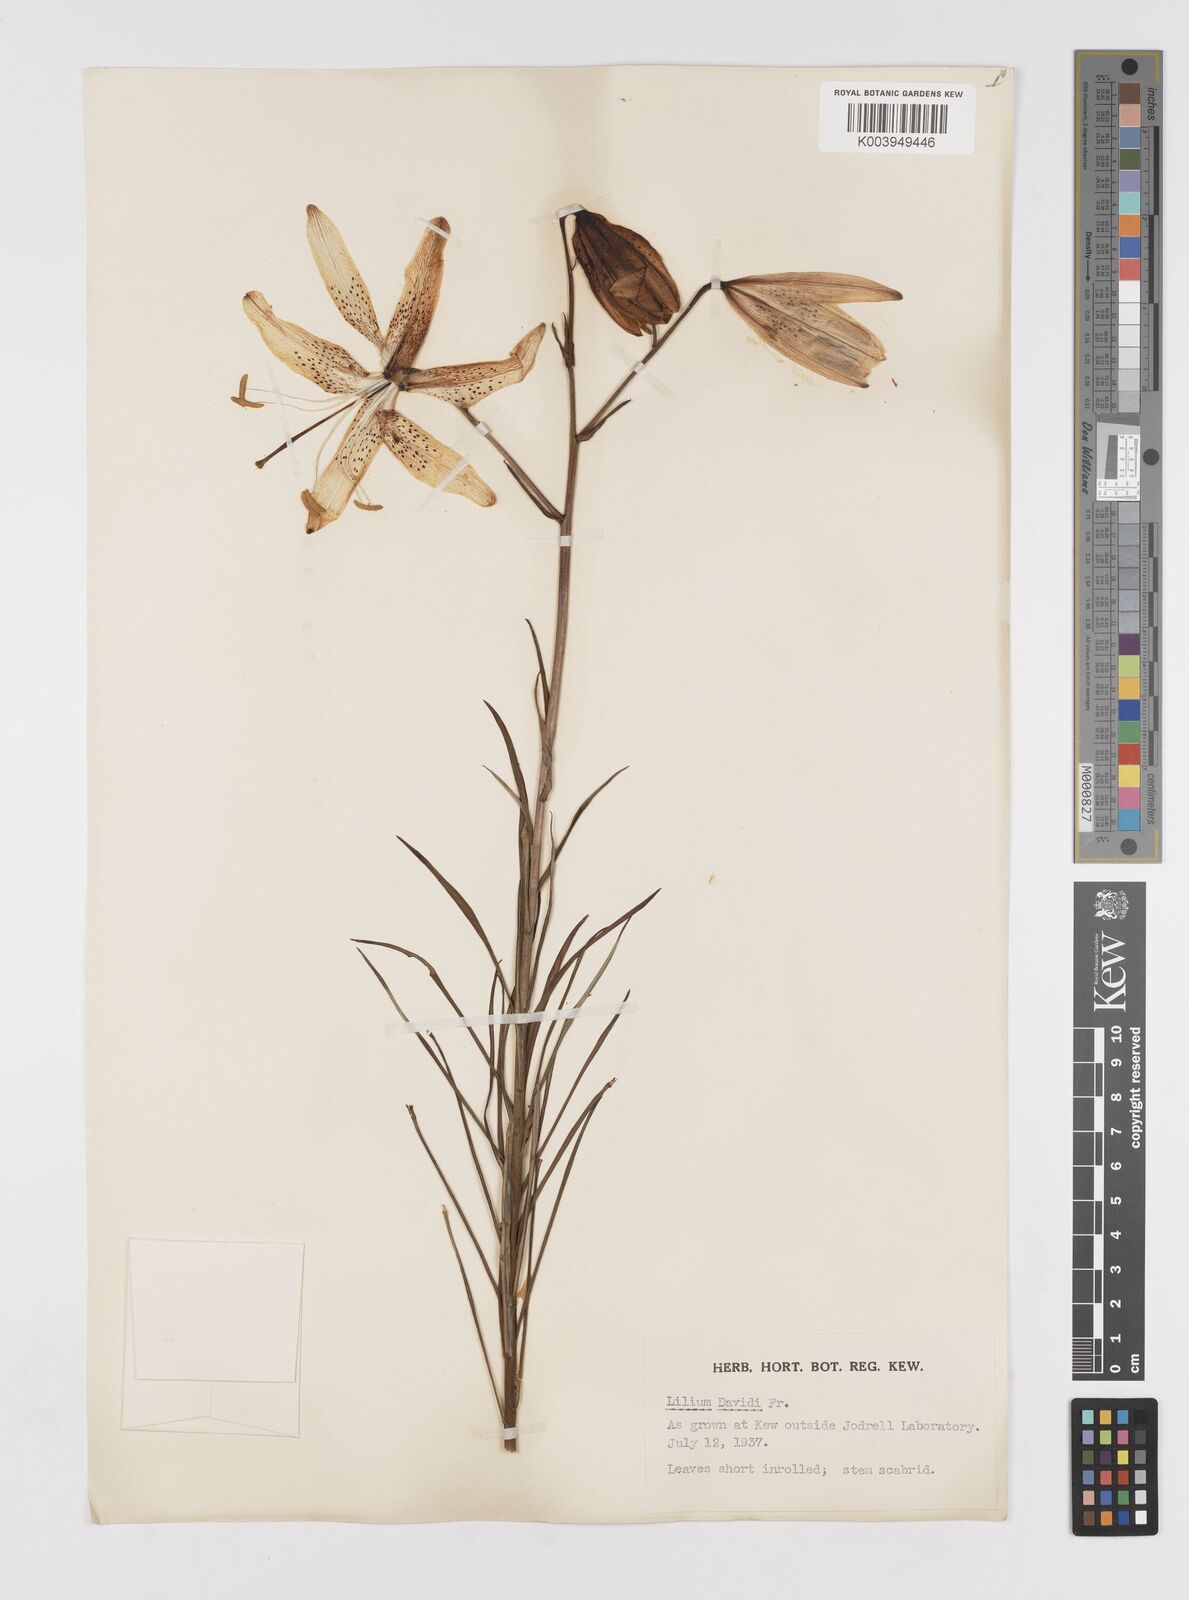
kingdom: Plantae
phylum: Tracheophyta
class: Liliopsida
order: Liliales
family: Liliaceae
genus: Lilium
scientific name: Lilium davidii
